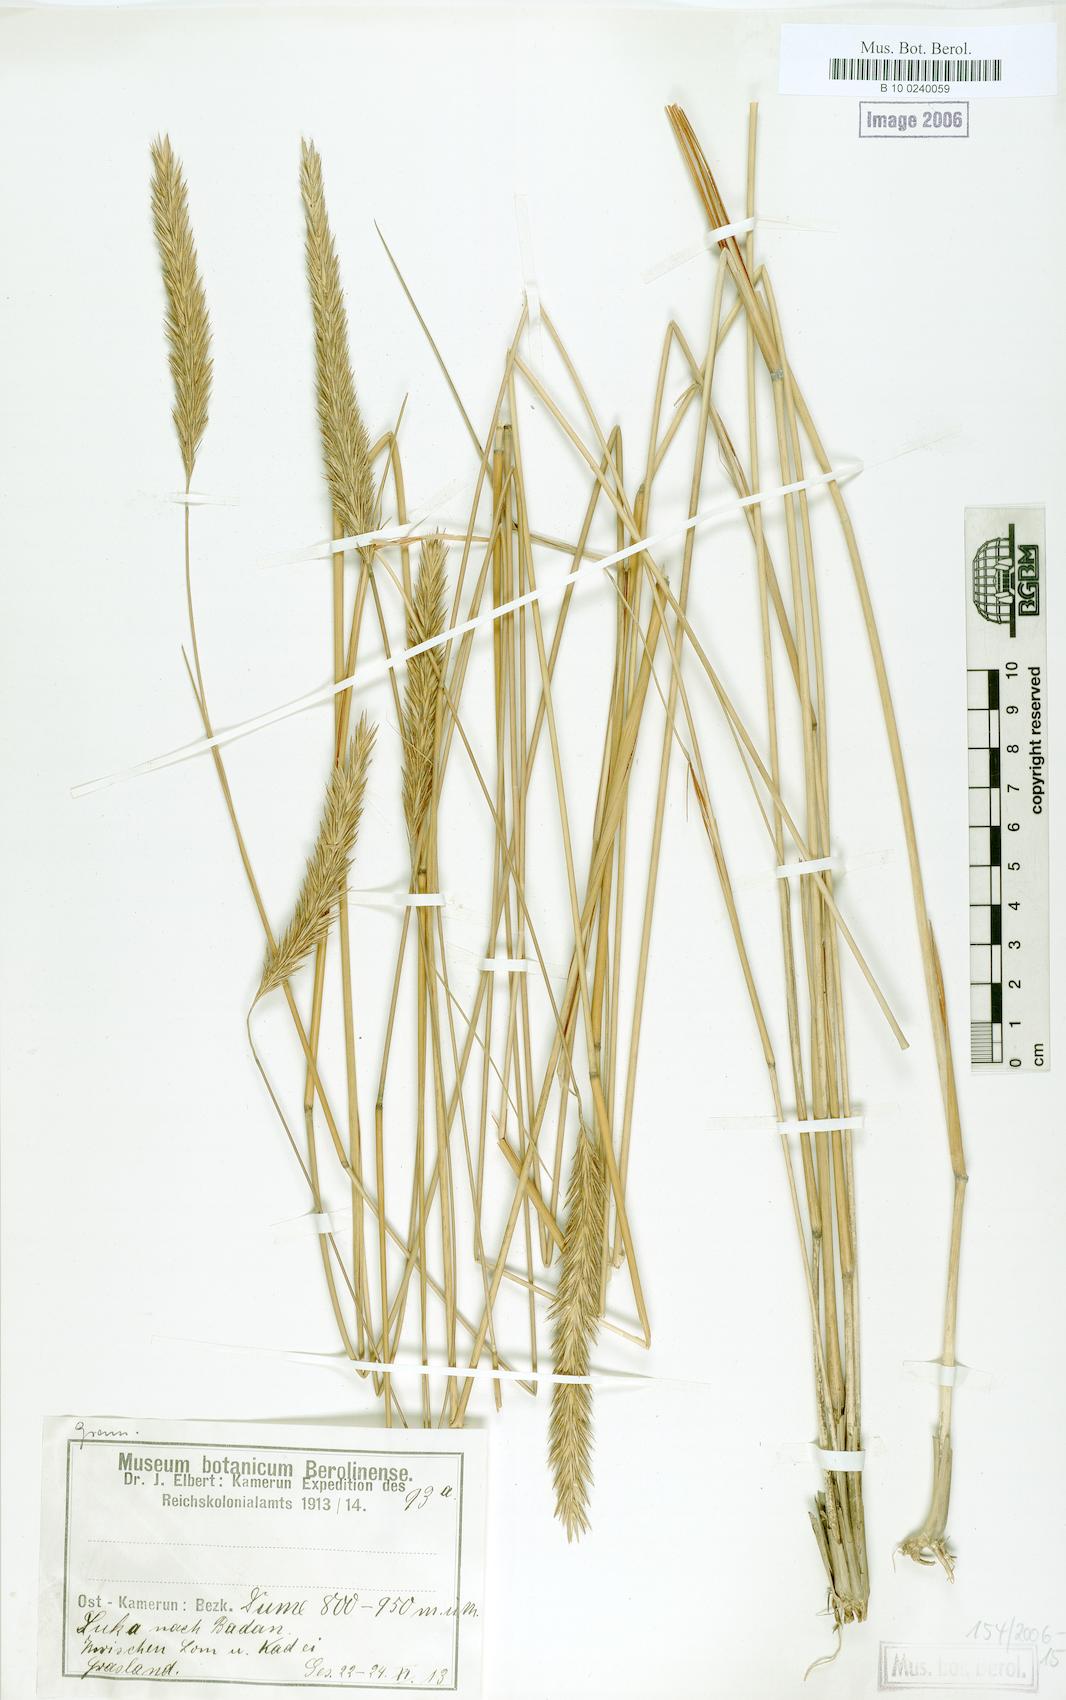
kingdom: Plantae
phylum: Tracheophyta
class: Liliopsida
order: Poales
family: Poaceae
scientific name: Poaceae
